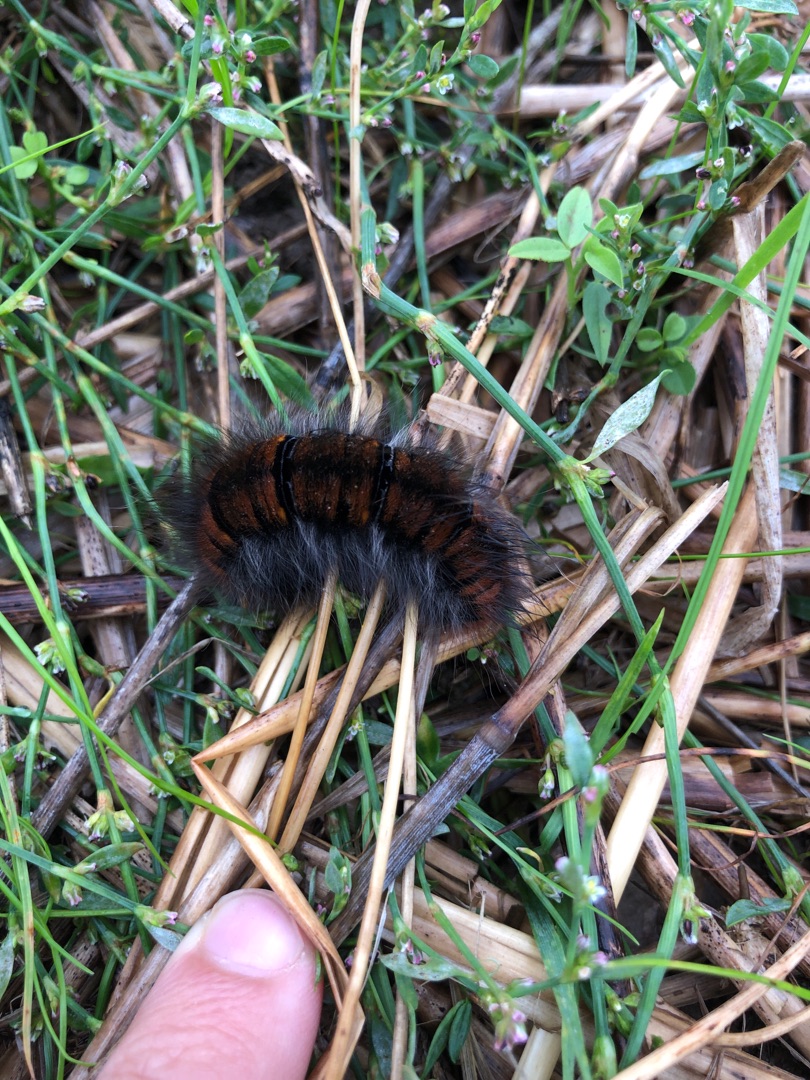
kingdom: Animalia
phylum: Arthropoda
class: Insecta
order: Lepidoptera
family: Lasiocampidae
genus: Macrothylacia
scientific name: Macrothylacia rubi
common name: Brombærspinder
